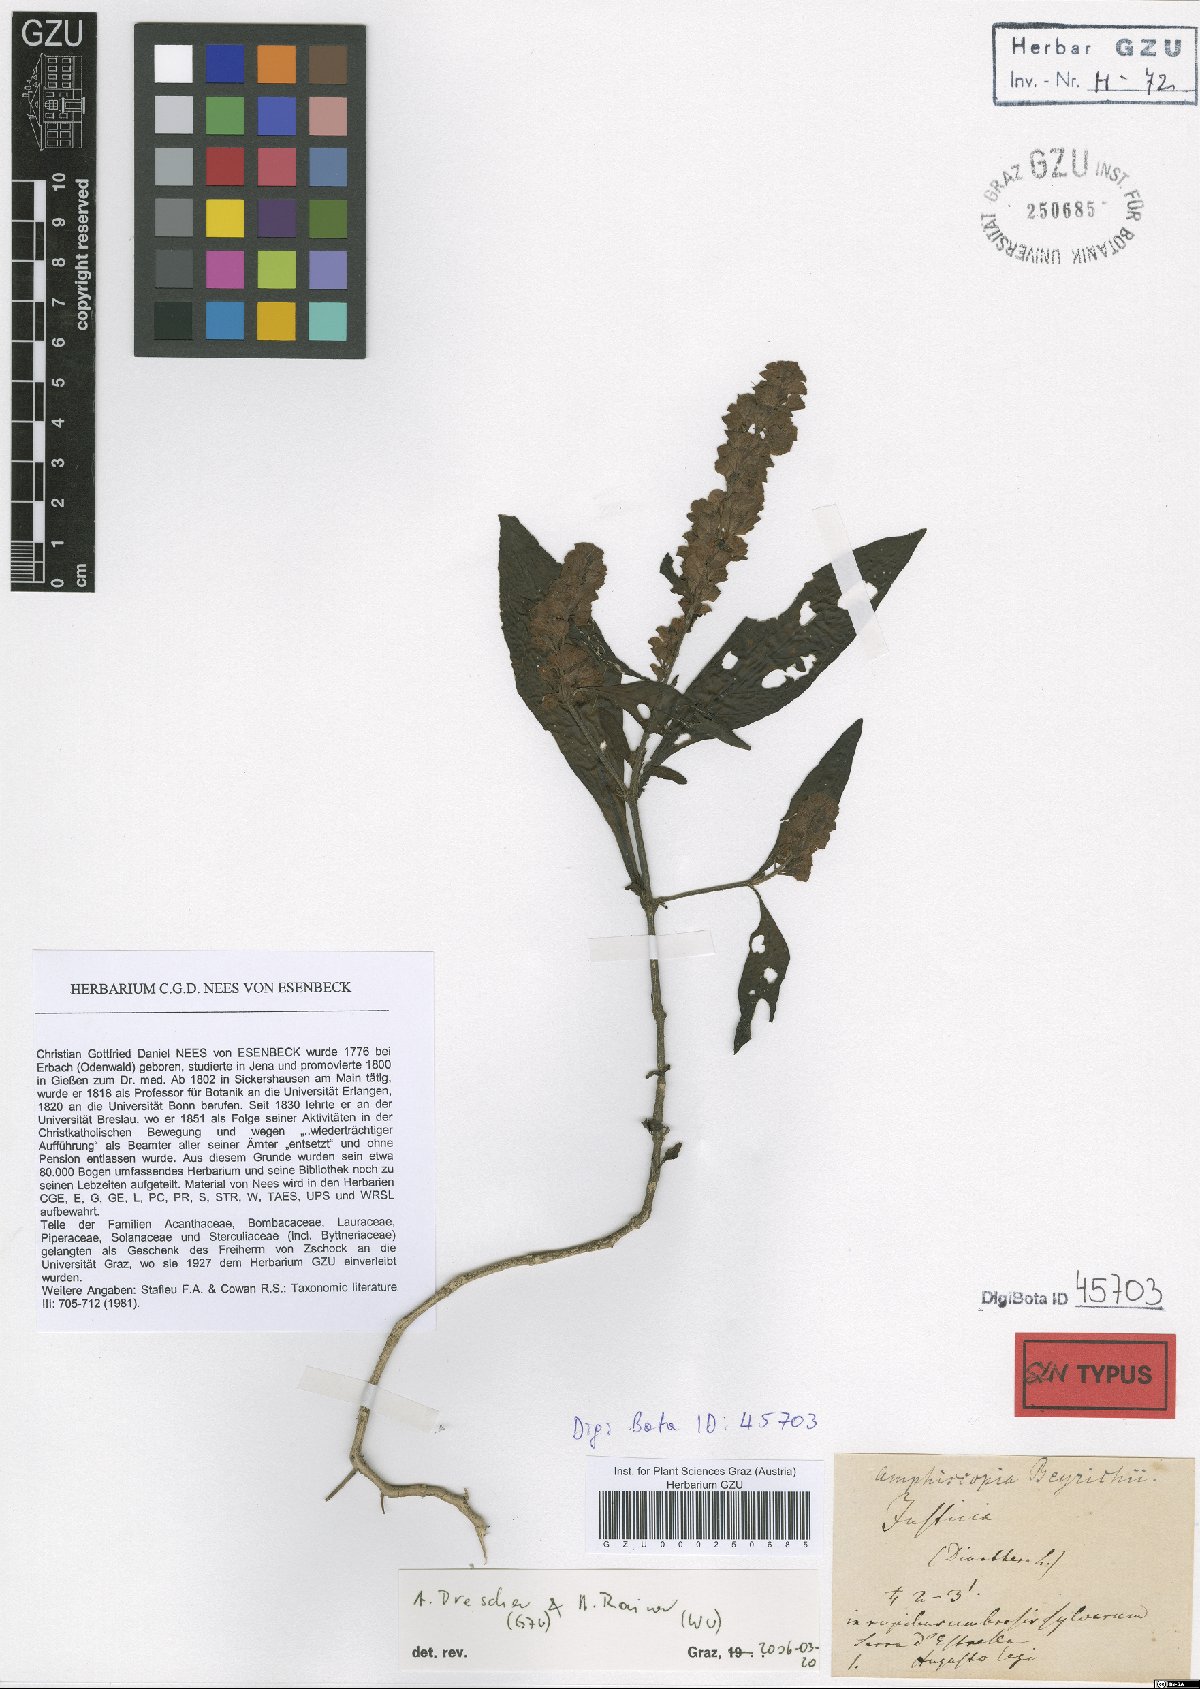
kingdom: Plantae
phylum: Tracheophyta
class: Magnoliopsida
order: Lamiales
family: Acanthaceae
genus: Dianthera
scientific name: Dianthera brasiliensis
